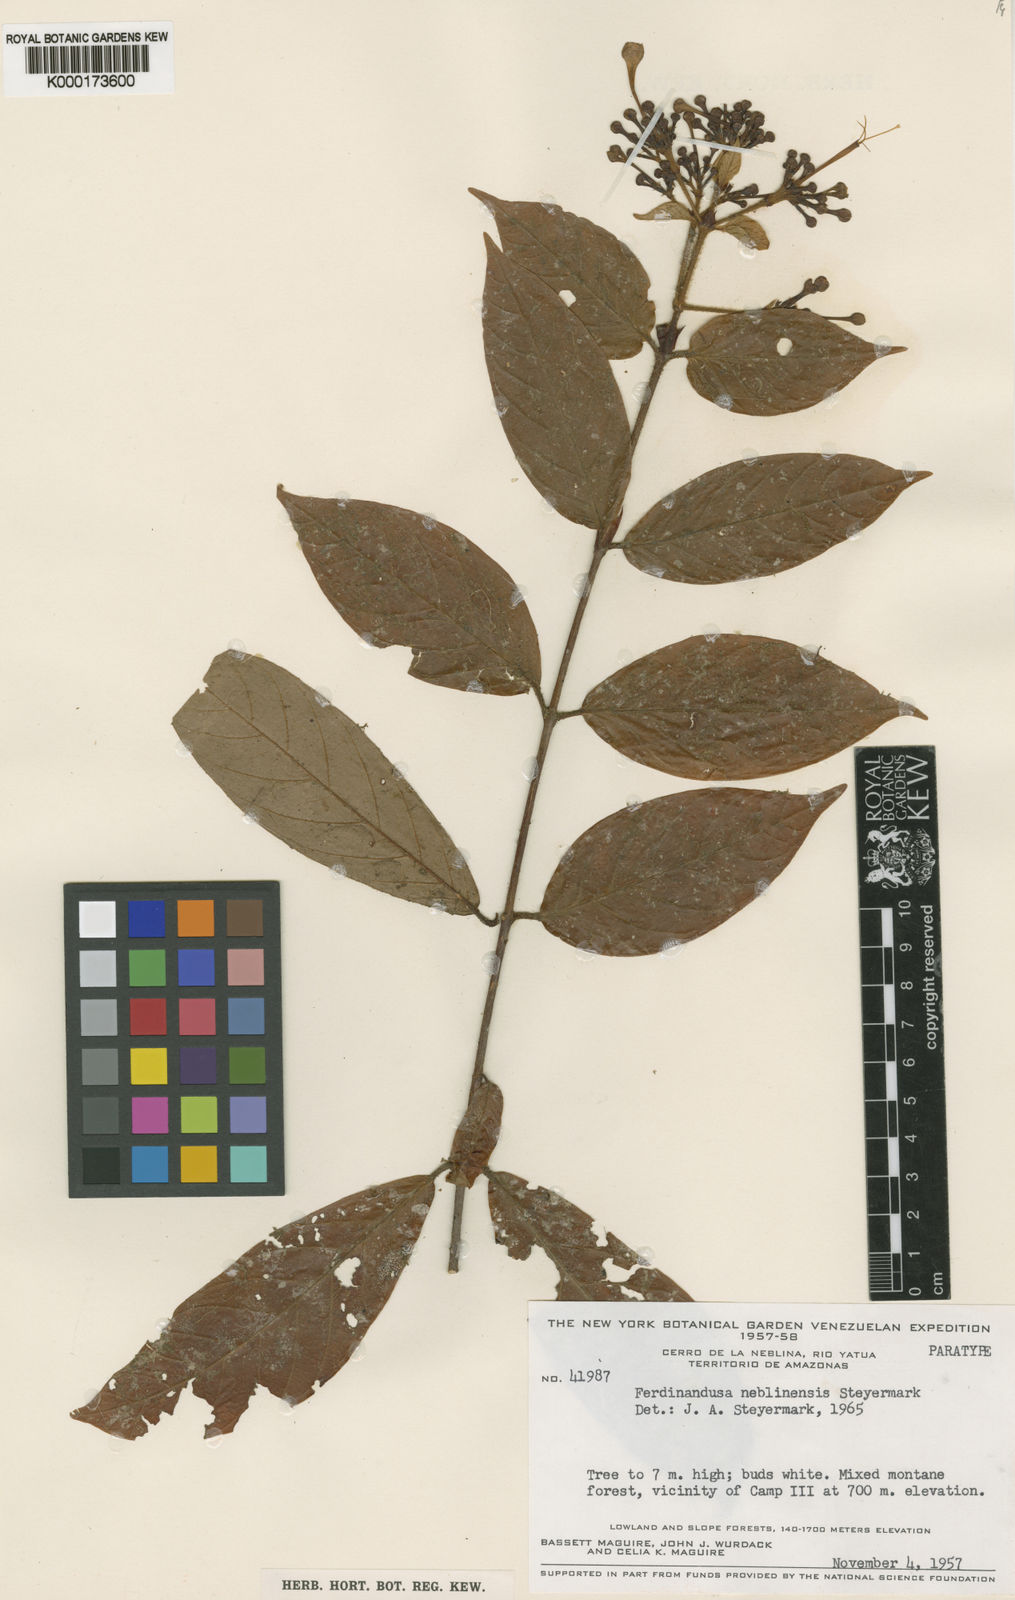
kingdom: Plantae
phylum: Tracheophyta
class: Magnoliopsida
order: Gentianales
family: Rubiaceae
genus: Ferdinandusa
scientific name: Ferdinandusa neblinensis
